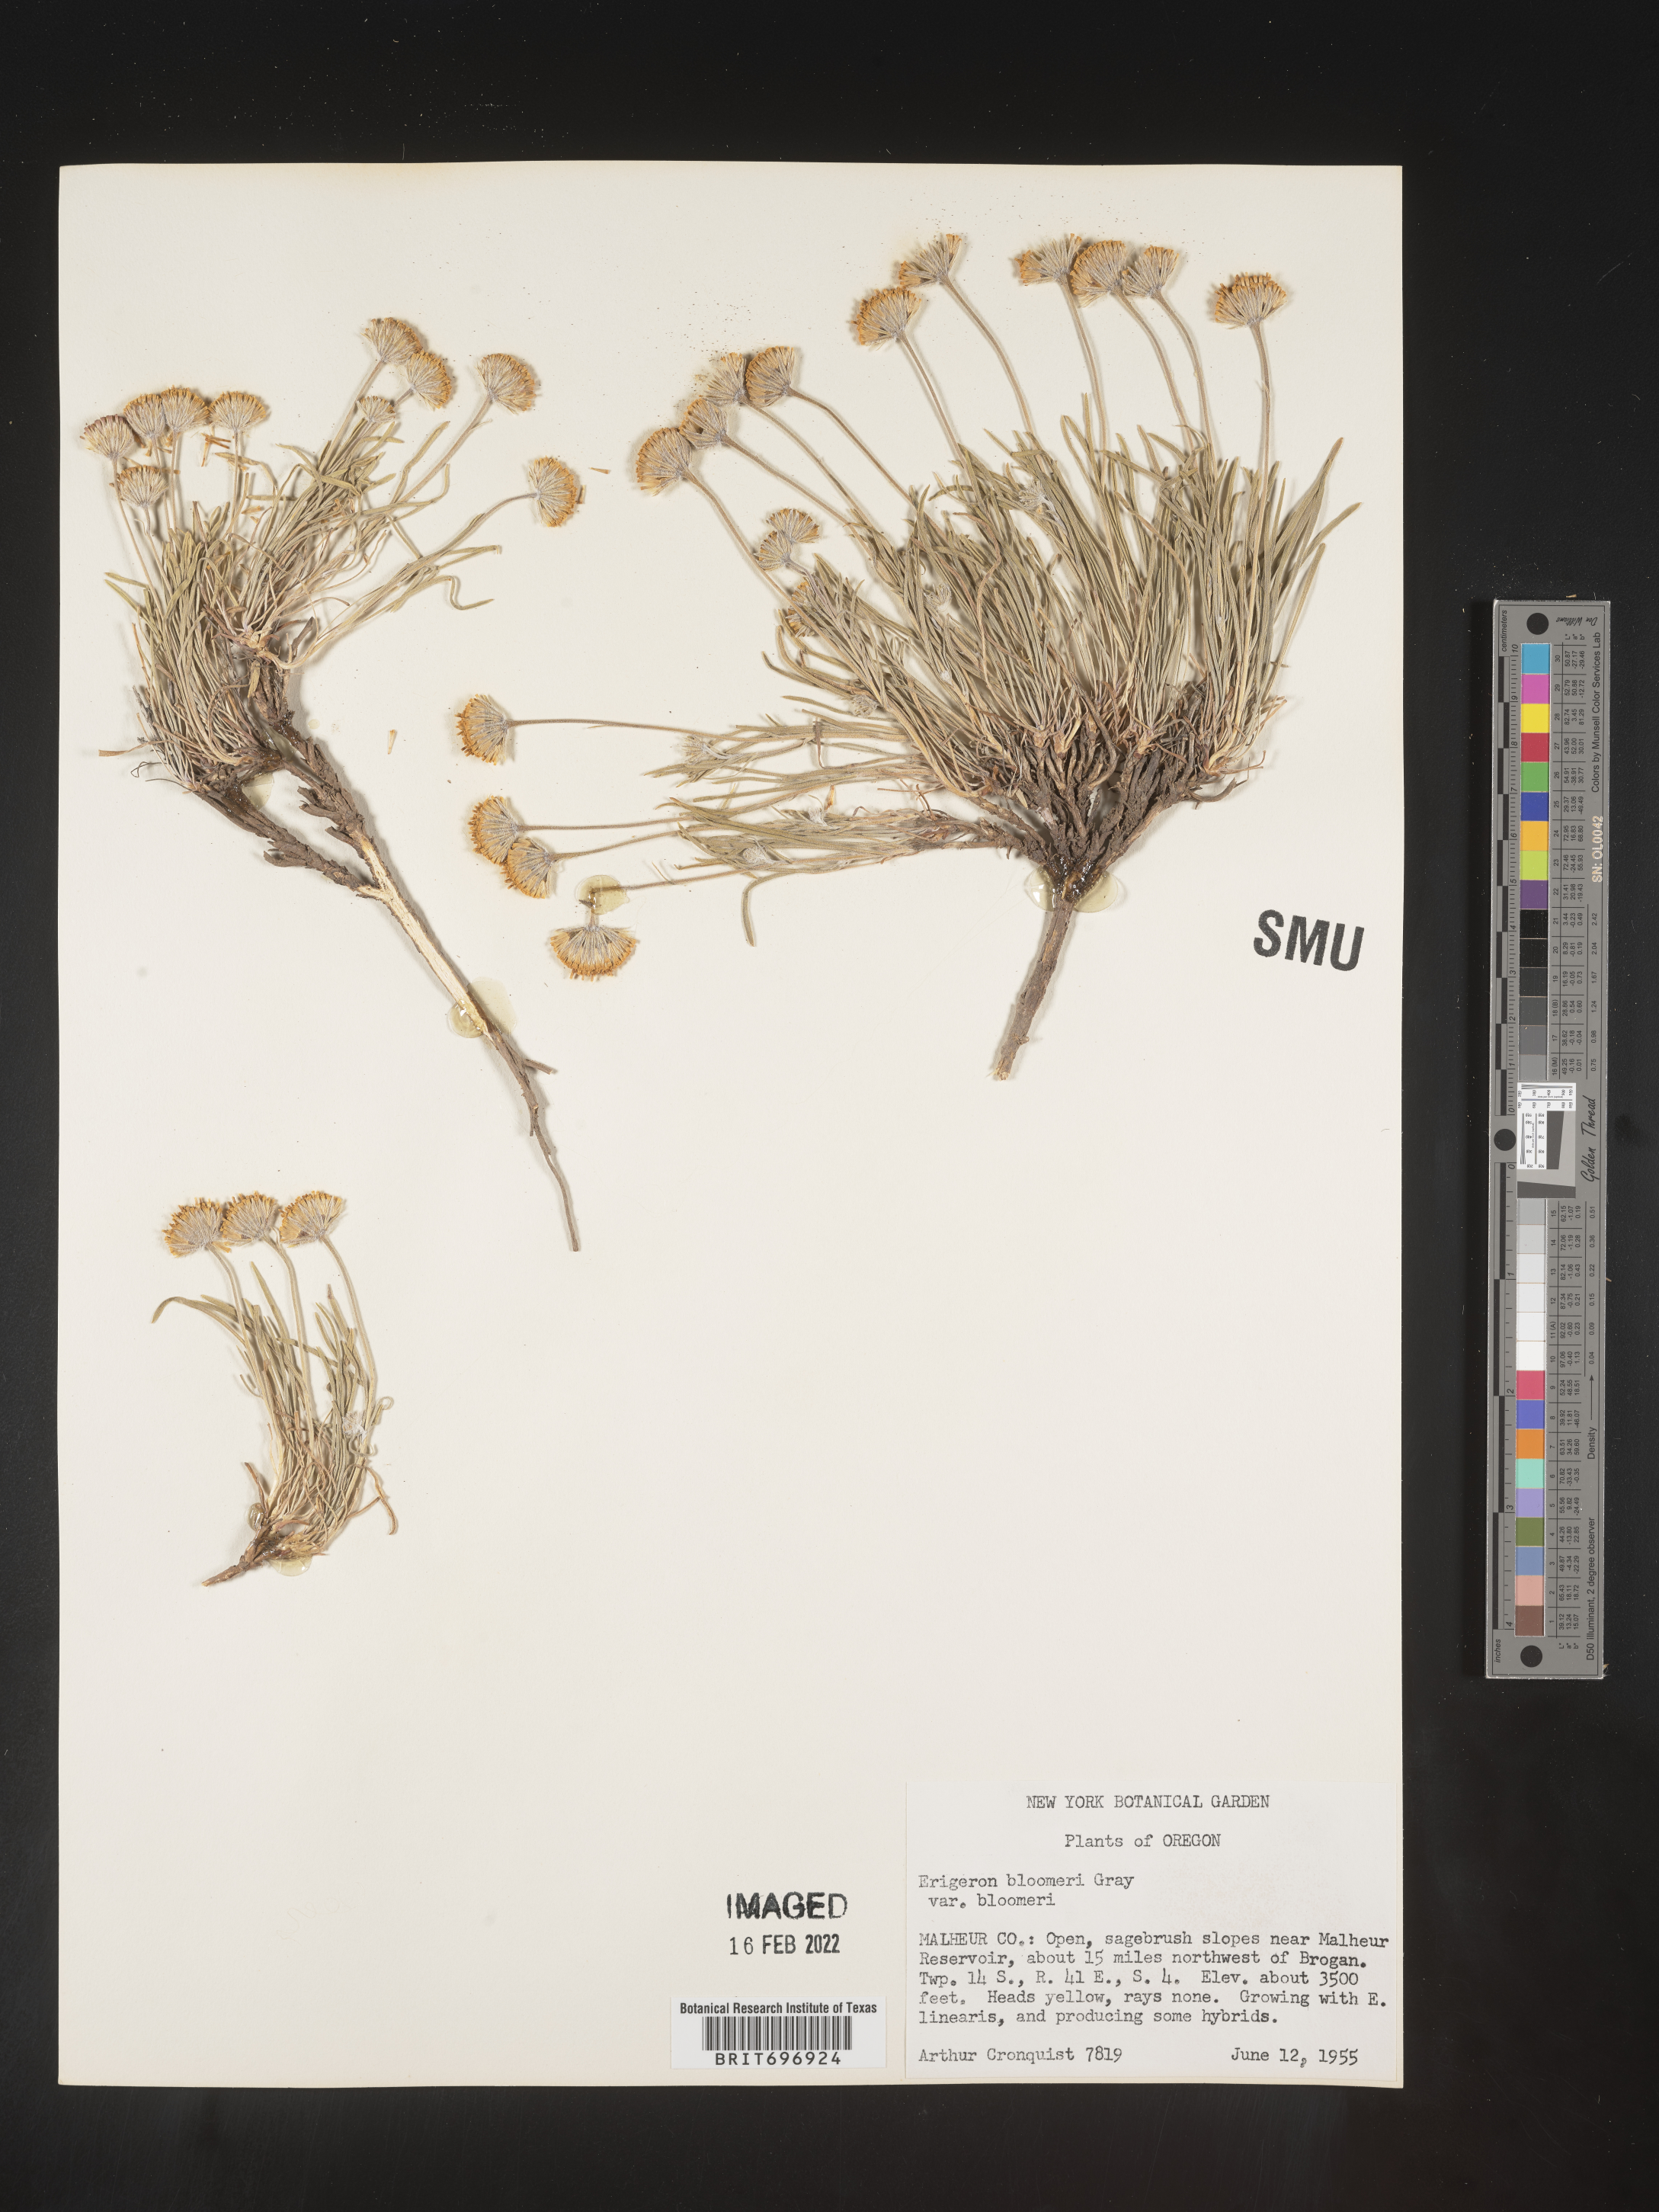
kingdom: Plantae
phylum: Tracheophyta
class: Magnoliopsida
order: Asterales
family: Asteraceae
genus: Erigeron
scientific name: Erigeron bloomeri
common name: Bloomer's fleabane
